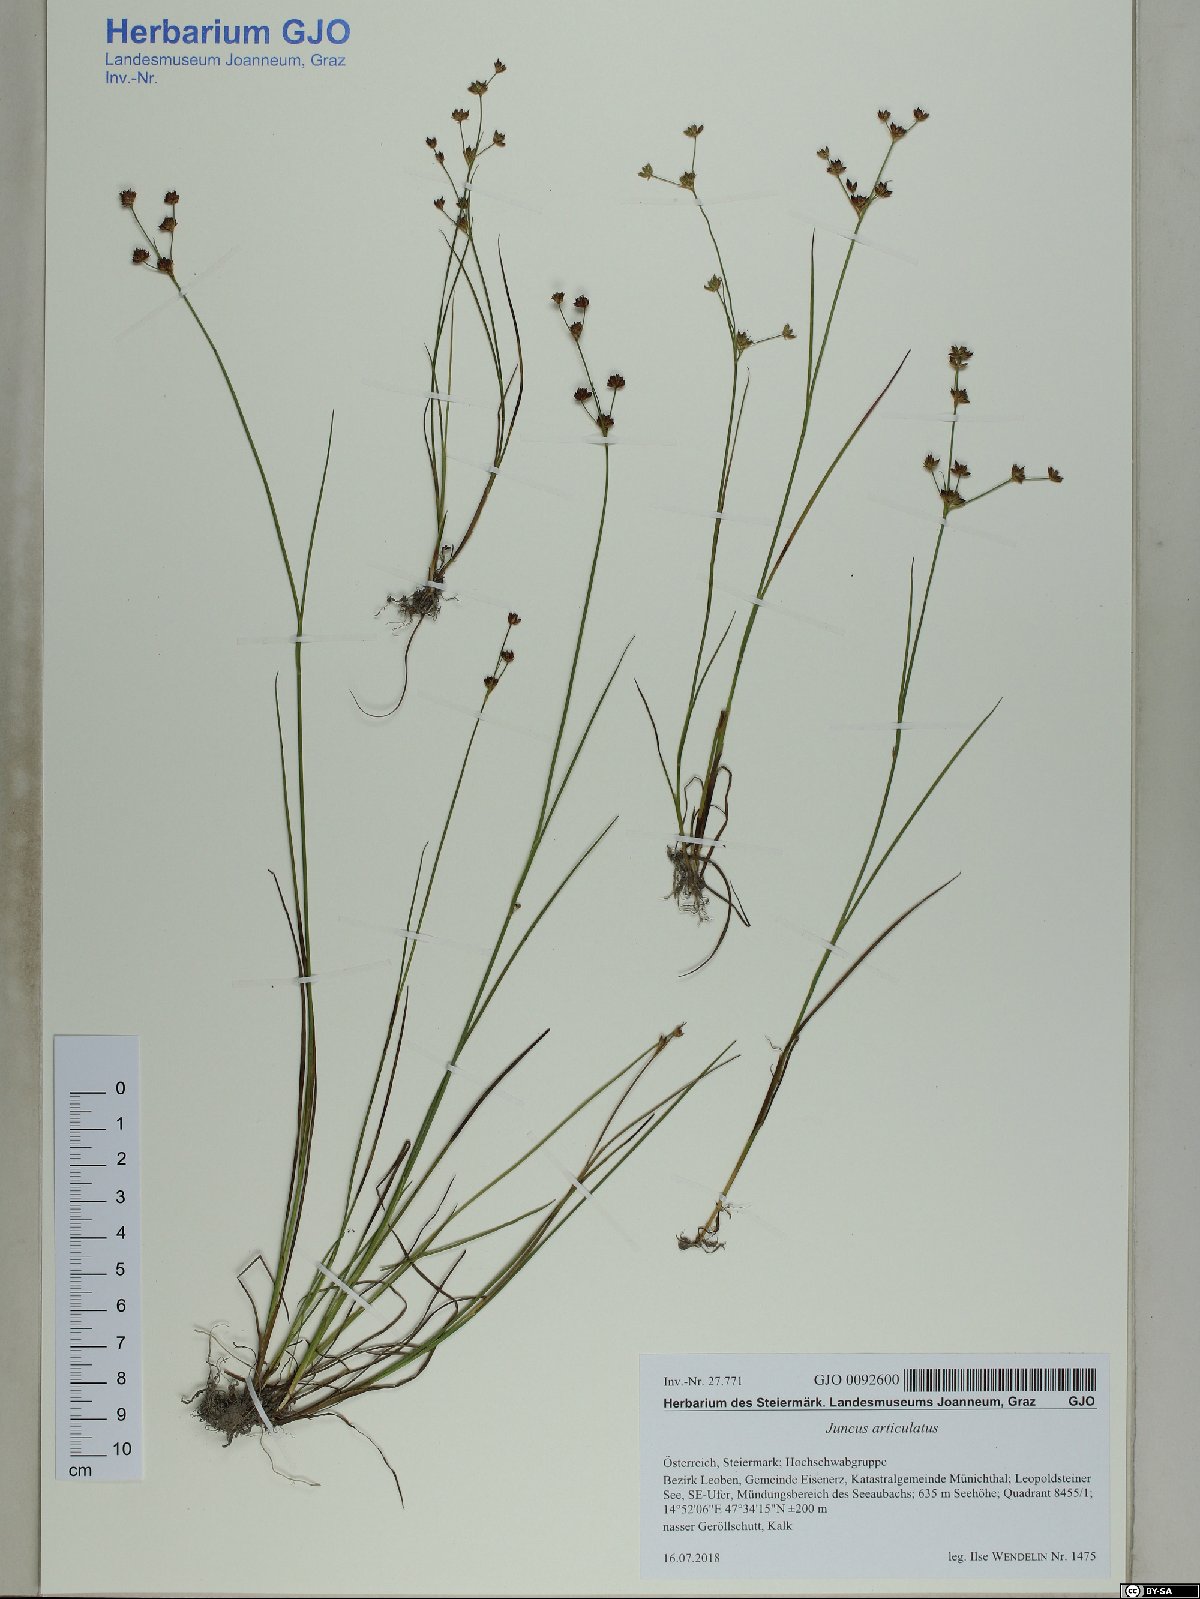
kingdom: Plantae
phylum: Tracheophyta
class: Liliopsida
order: Poales
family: Juncaceae
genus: Juncus
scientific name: Juncus articulatus
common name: Jointed rush
